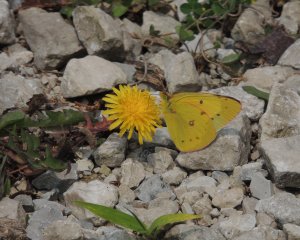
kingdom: Animalia
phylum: Arthropoda
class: Insecta
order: Lepidoptera
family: Pieridae
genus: Colias
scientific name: Colias eurytheme
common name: Orange Sulphur
